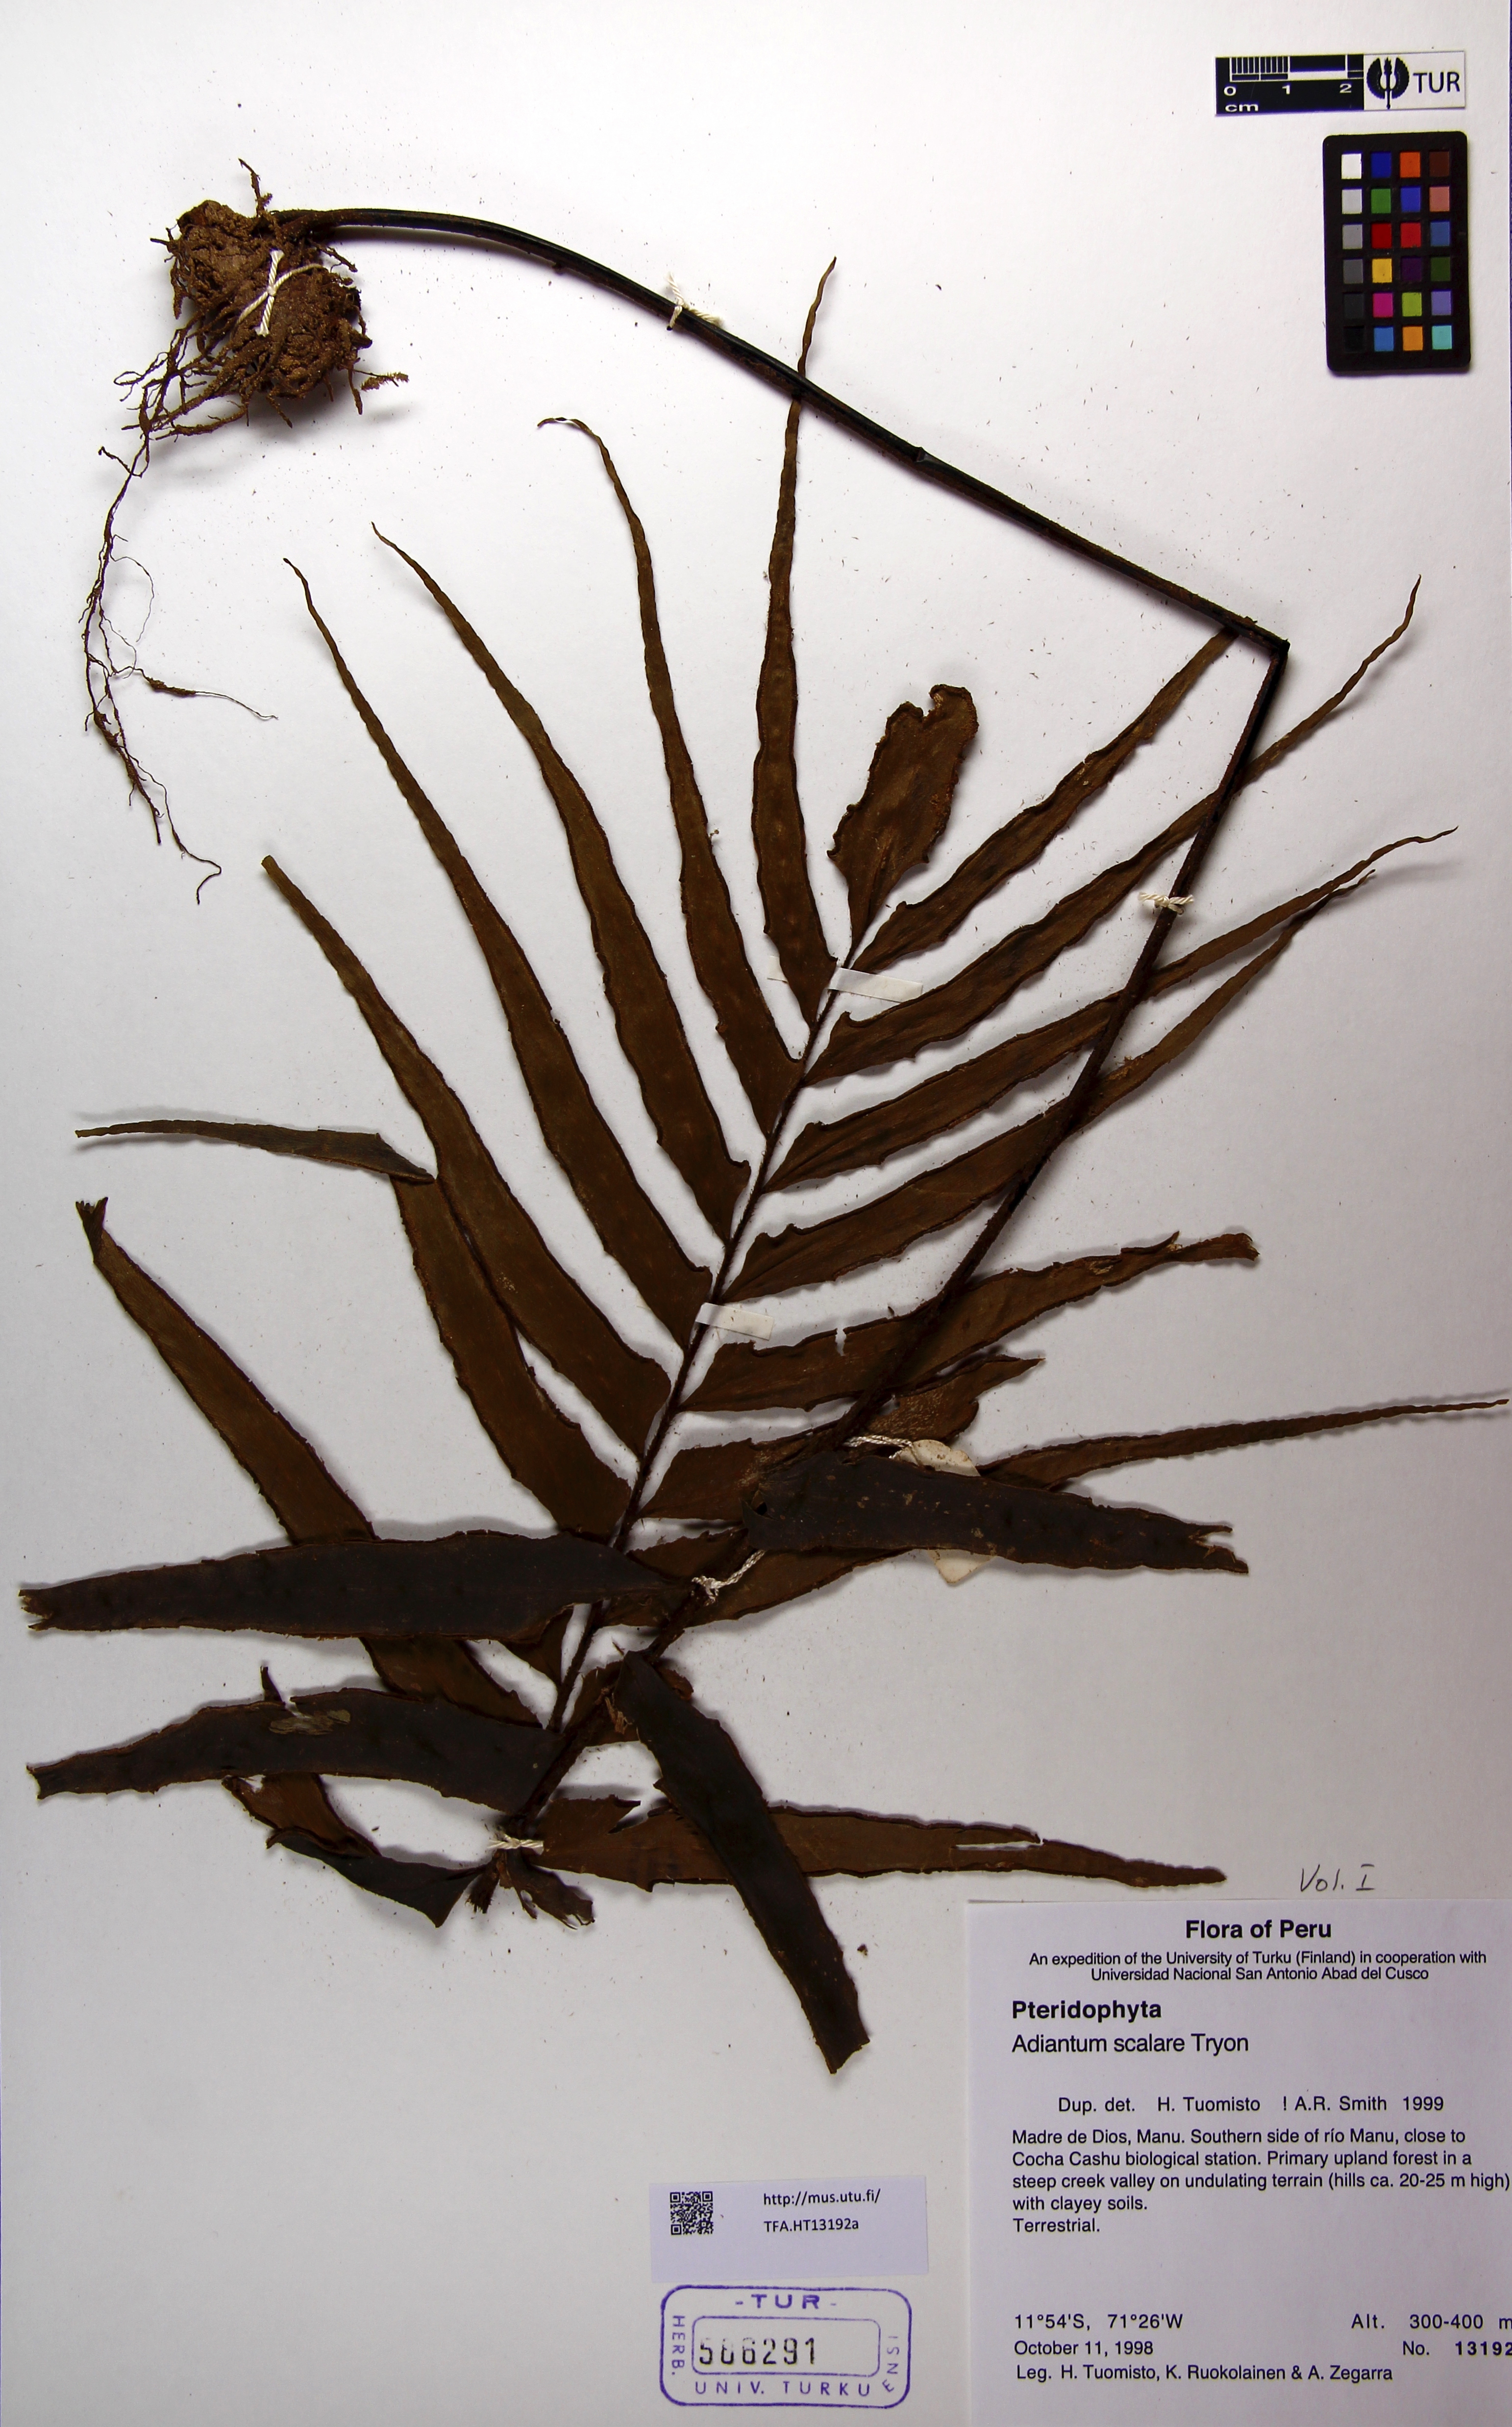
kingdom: Plantae
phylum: Tracheophyta
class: Polypodiopsida
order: Polypodiales
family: Pteridaceae
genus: Adiantum
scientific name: Adiantum scalare
